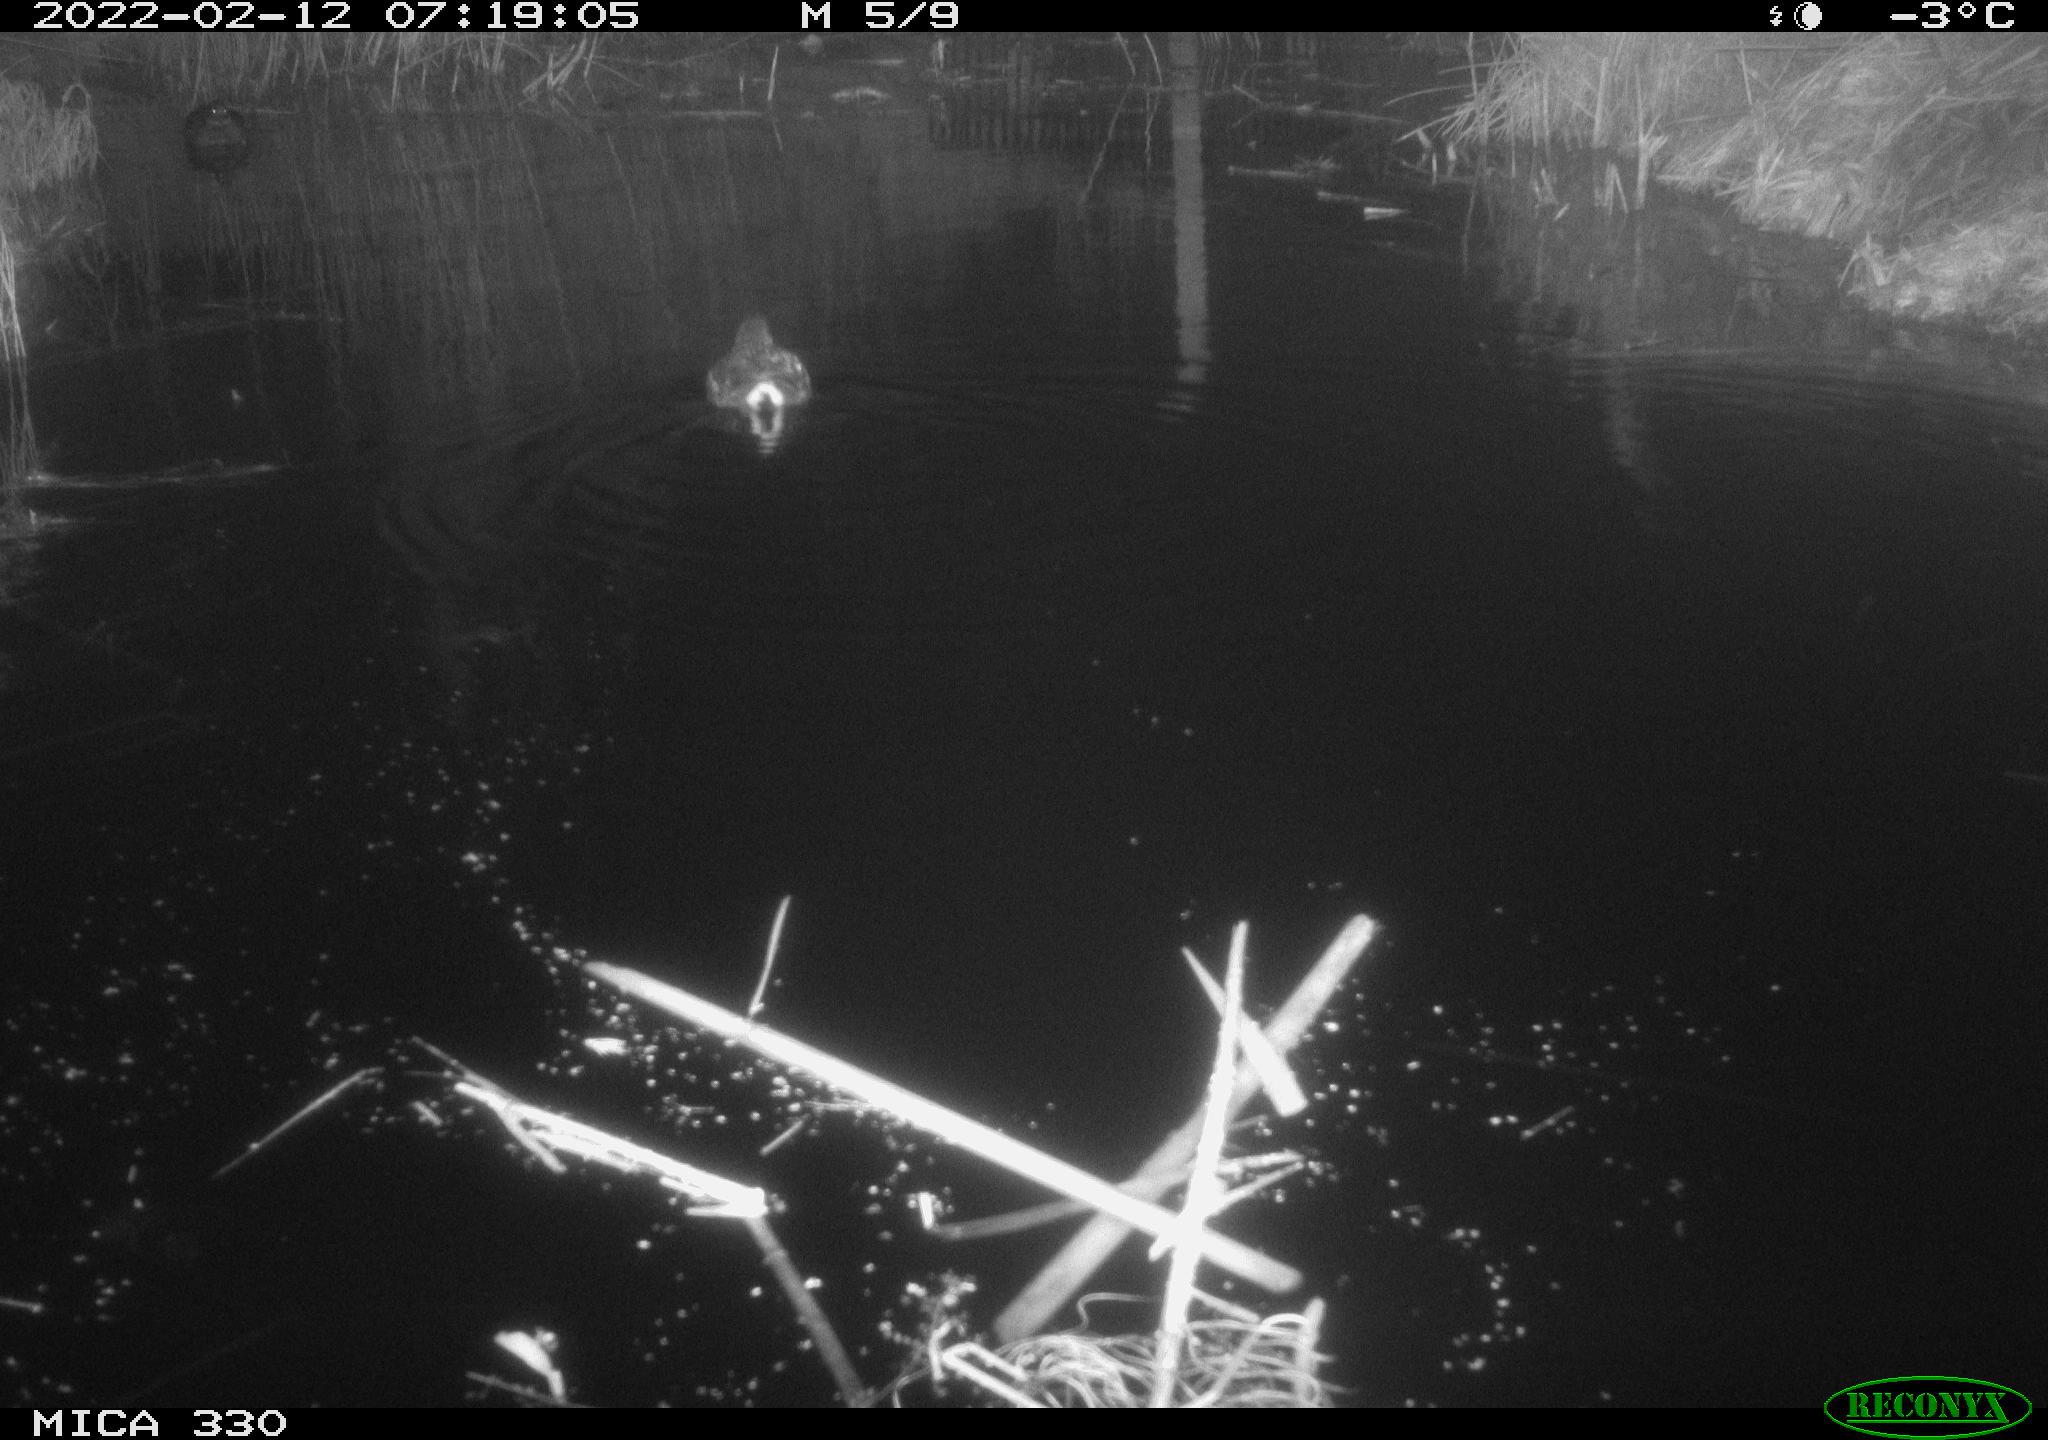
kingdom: Animalia
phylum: Chordata
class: Aves
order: Gruiformes
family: Rallidae
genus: Gallinula
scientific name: Gallinula chloropus
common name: Common moorhen
